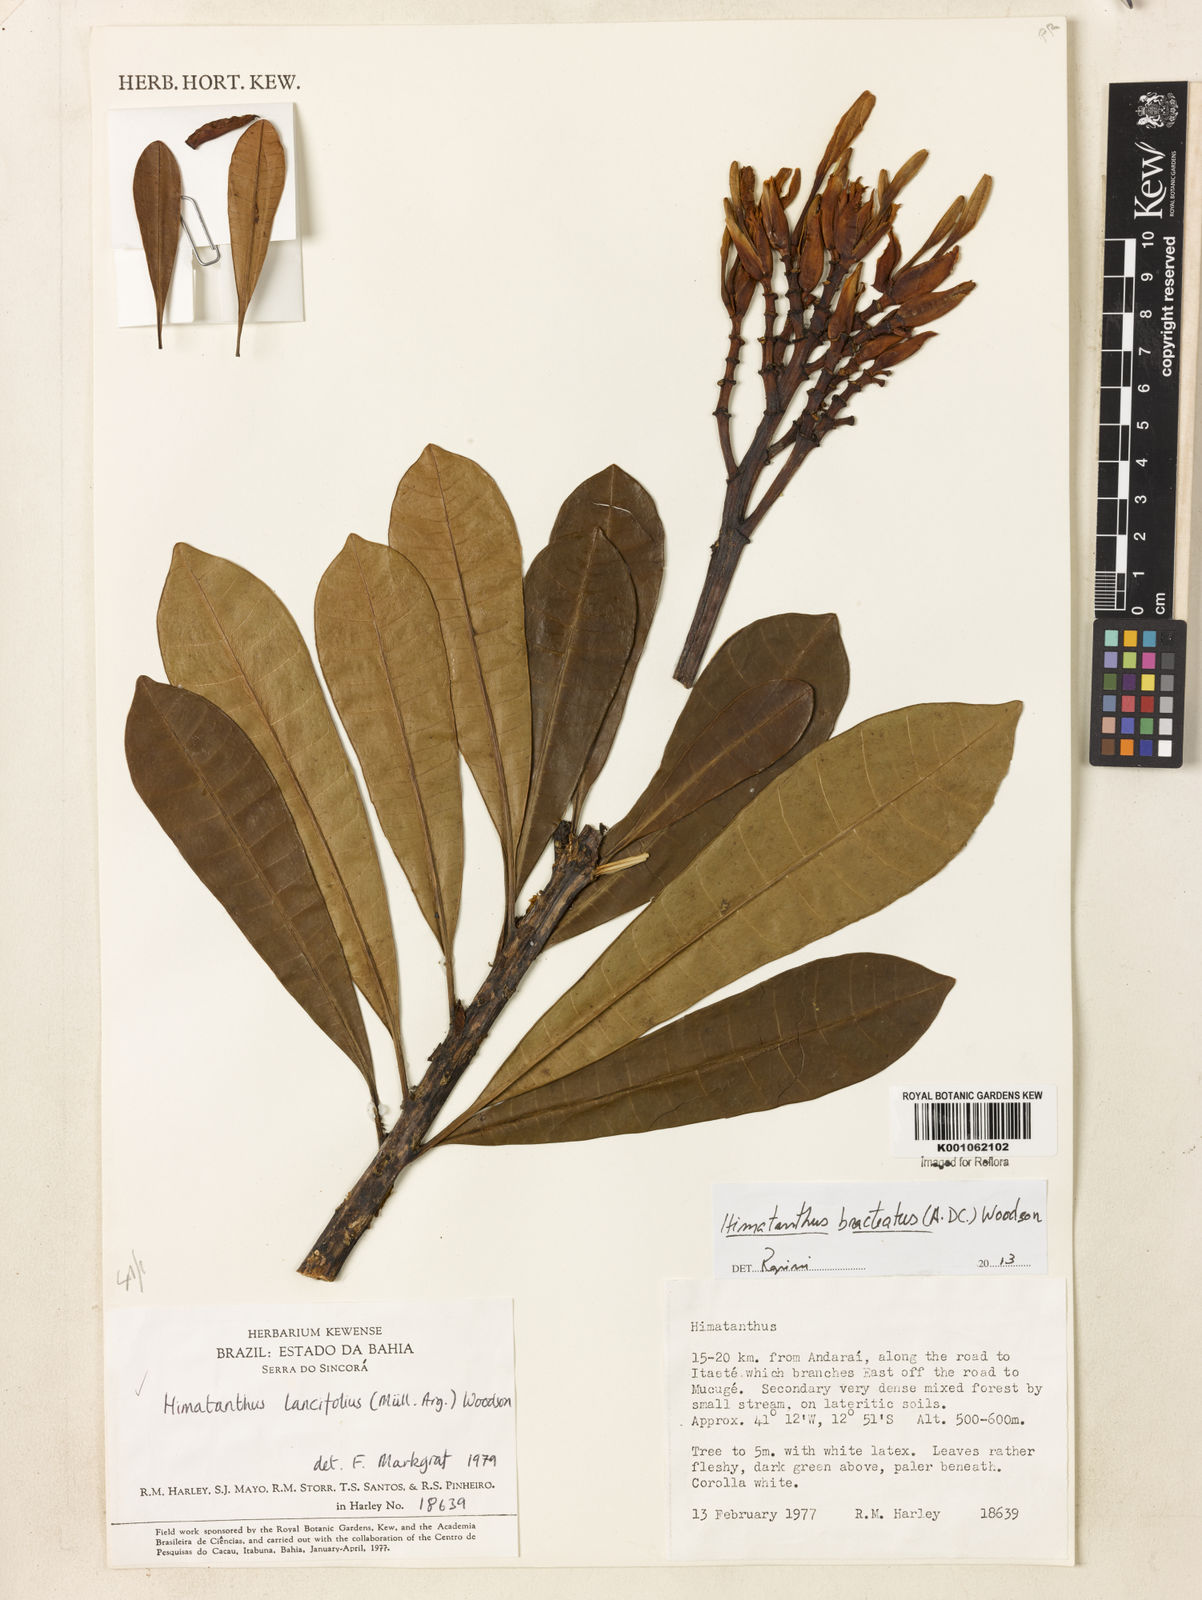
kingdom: Plantae
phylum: Tracheophyta
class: Magnoliopsida
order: Gentianales
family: Apocynaceae
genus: Himatanthus
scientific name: Himatanthus bracteatus
